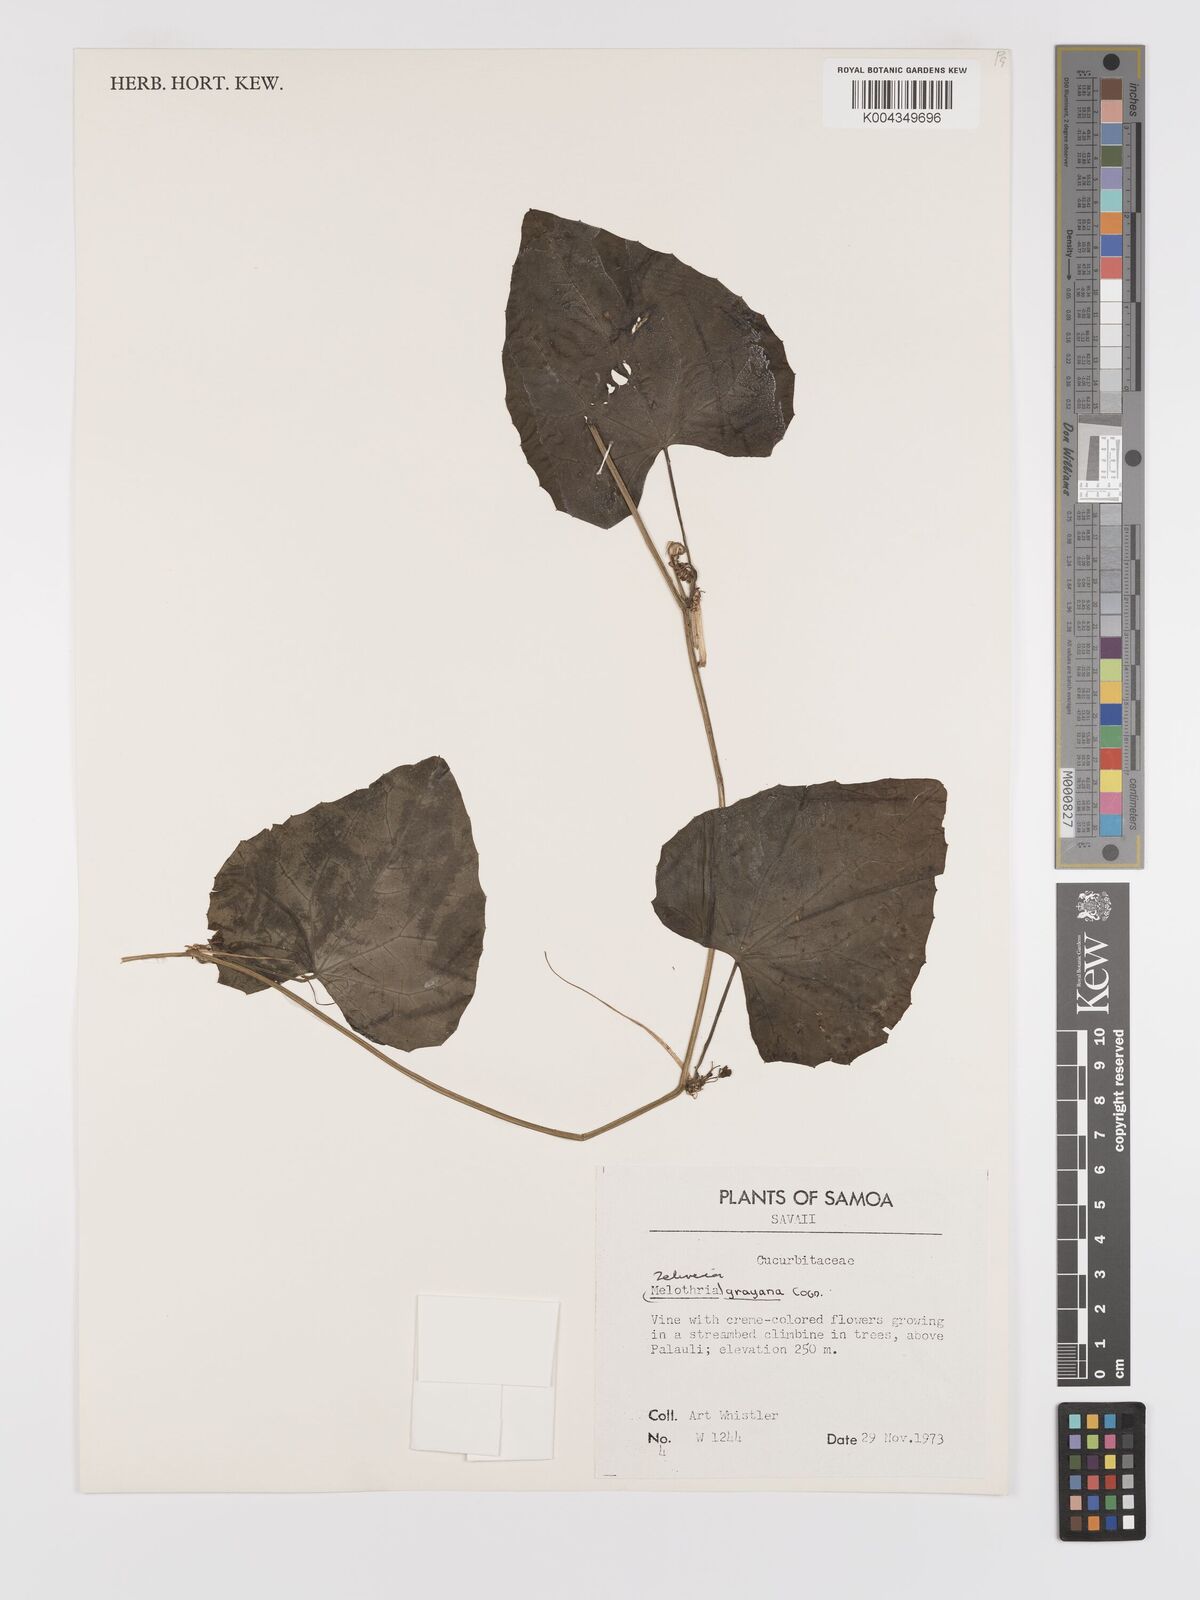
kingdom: Plantae
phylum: Tracheophyta
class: Magnoliopsida
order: Cucurbitales
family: Cucurbitaceae
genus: Zehneria
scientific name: Zehneria
